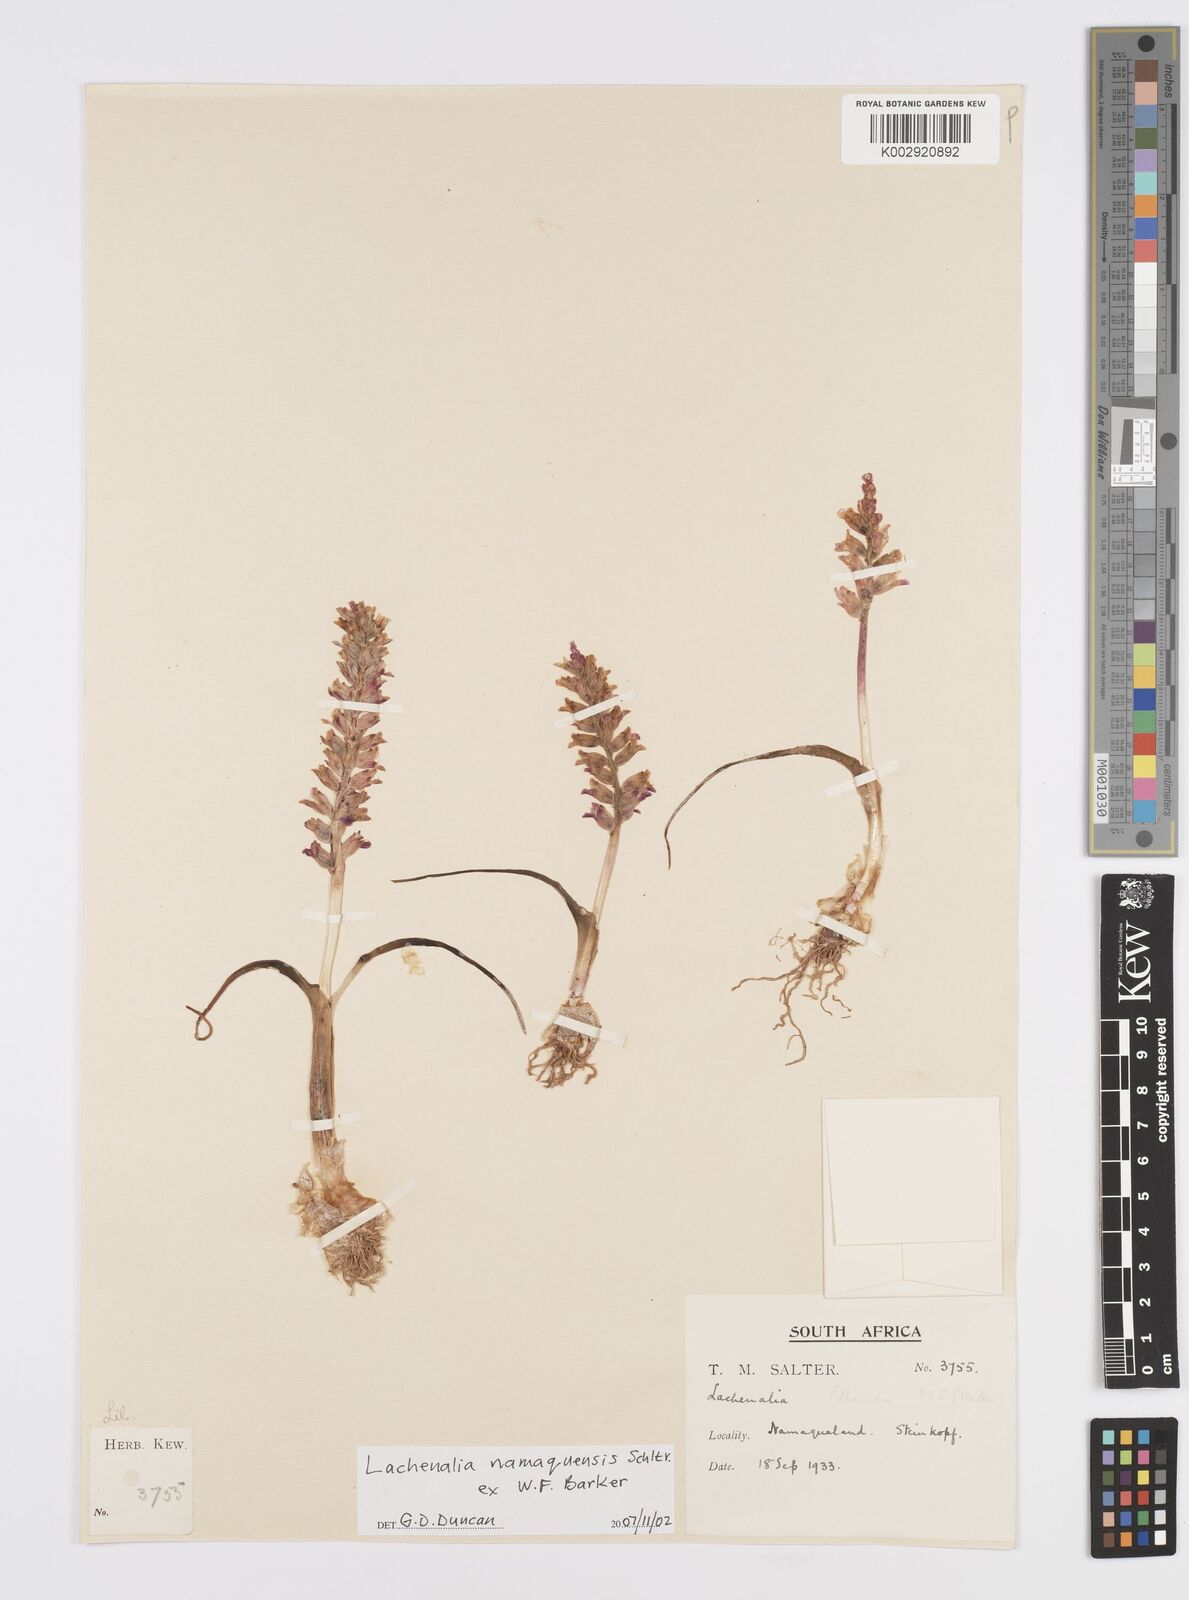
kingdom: Plantae
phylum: Tracheophyta
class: Liliopsida
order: Asparagales
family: Asparagaceae
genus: Lachenalia
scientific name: Lachenalia
